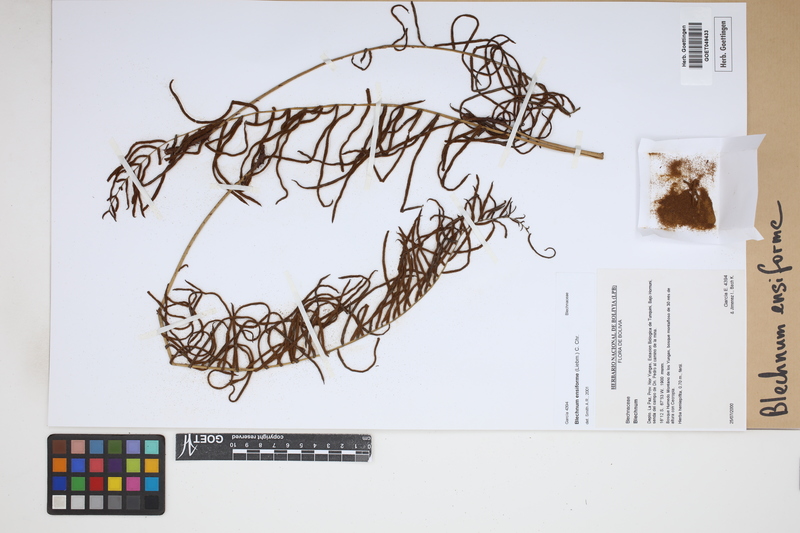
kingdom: Plantae
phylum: Tracheophyta
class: Polypodiopsida
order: Polypodiales
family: Blechnaceae
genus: Lomaridium
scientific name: Lomaridium ensiforme
